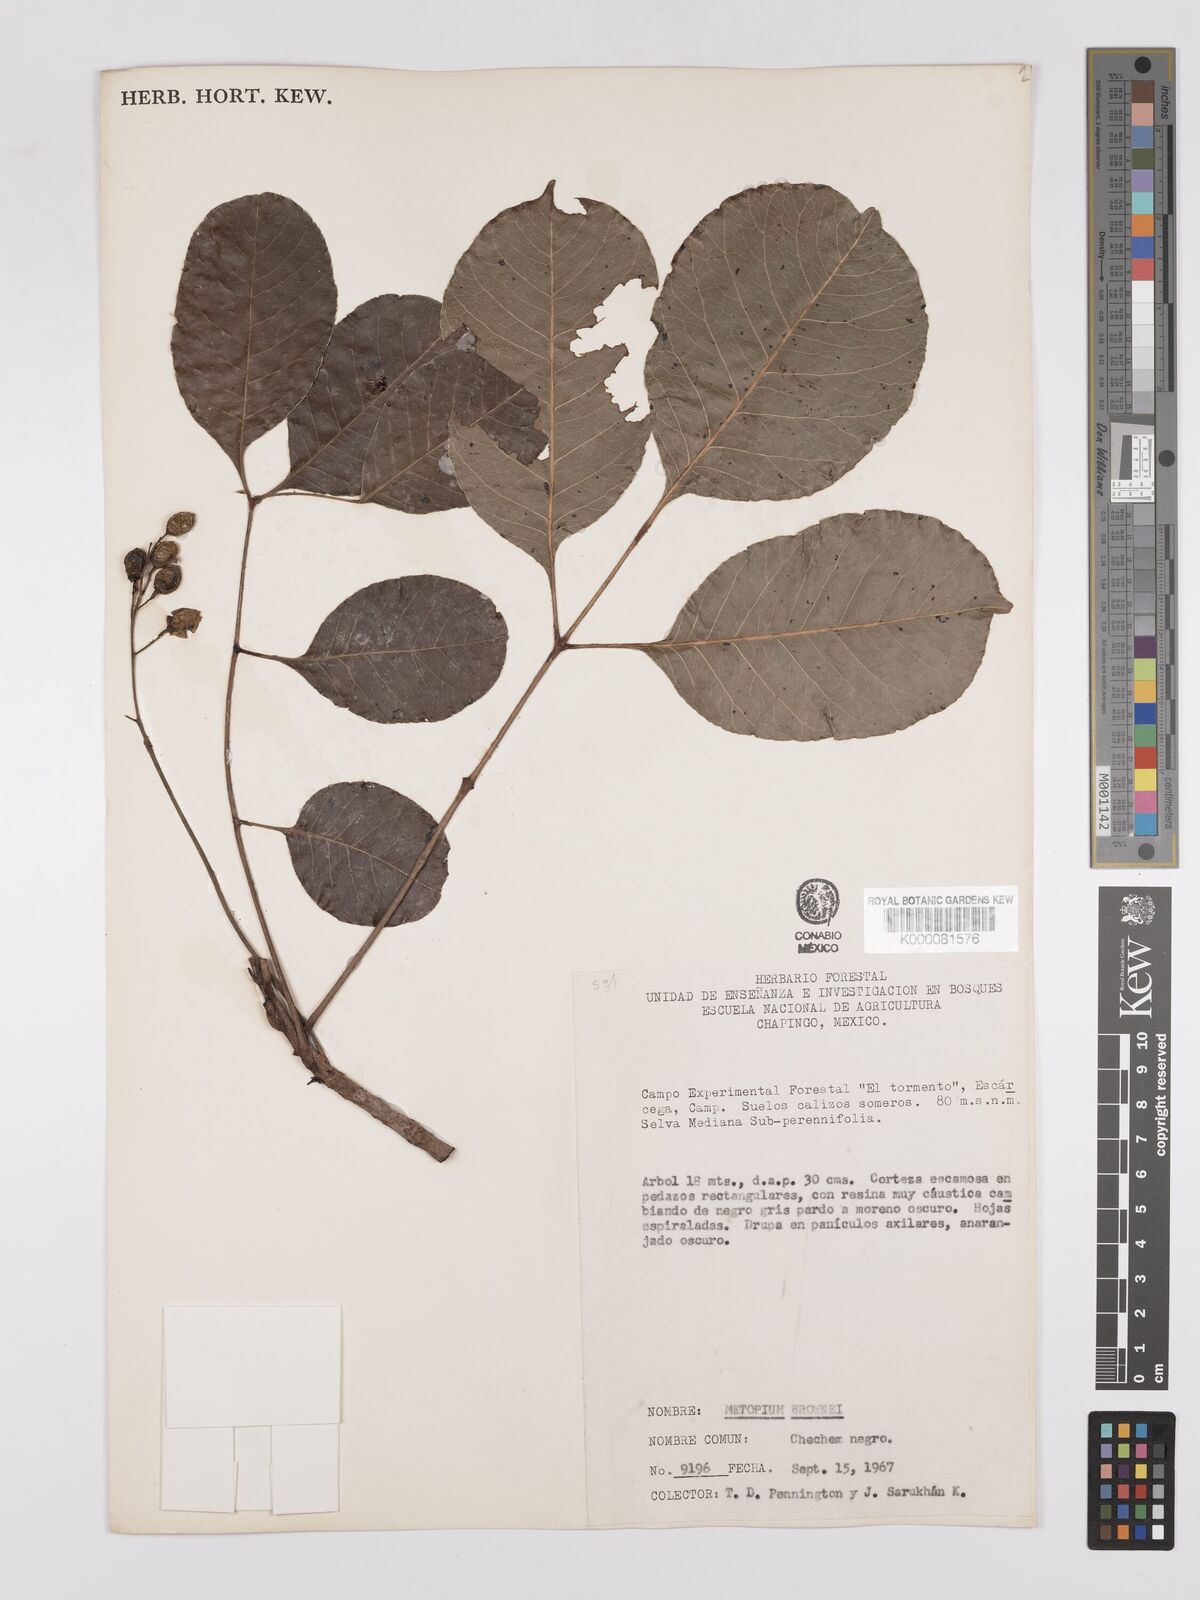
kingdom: Plantae
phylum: Tracheophyta
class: Magnoliopsida
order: Sapindales
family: Anacardiaceae
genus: Metopium
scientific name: Metopium brownei
